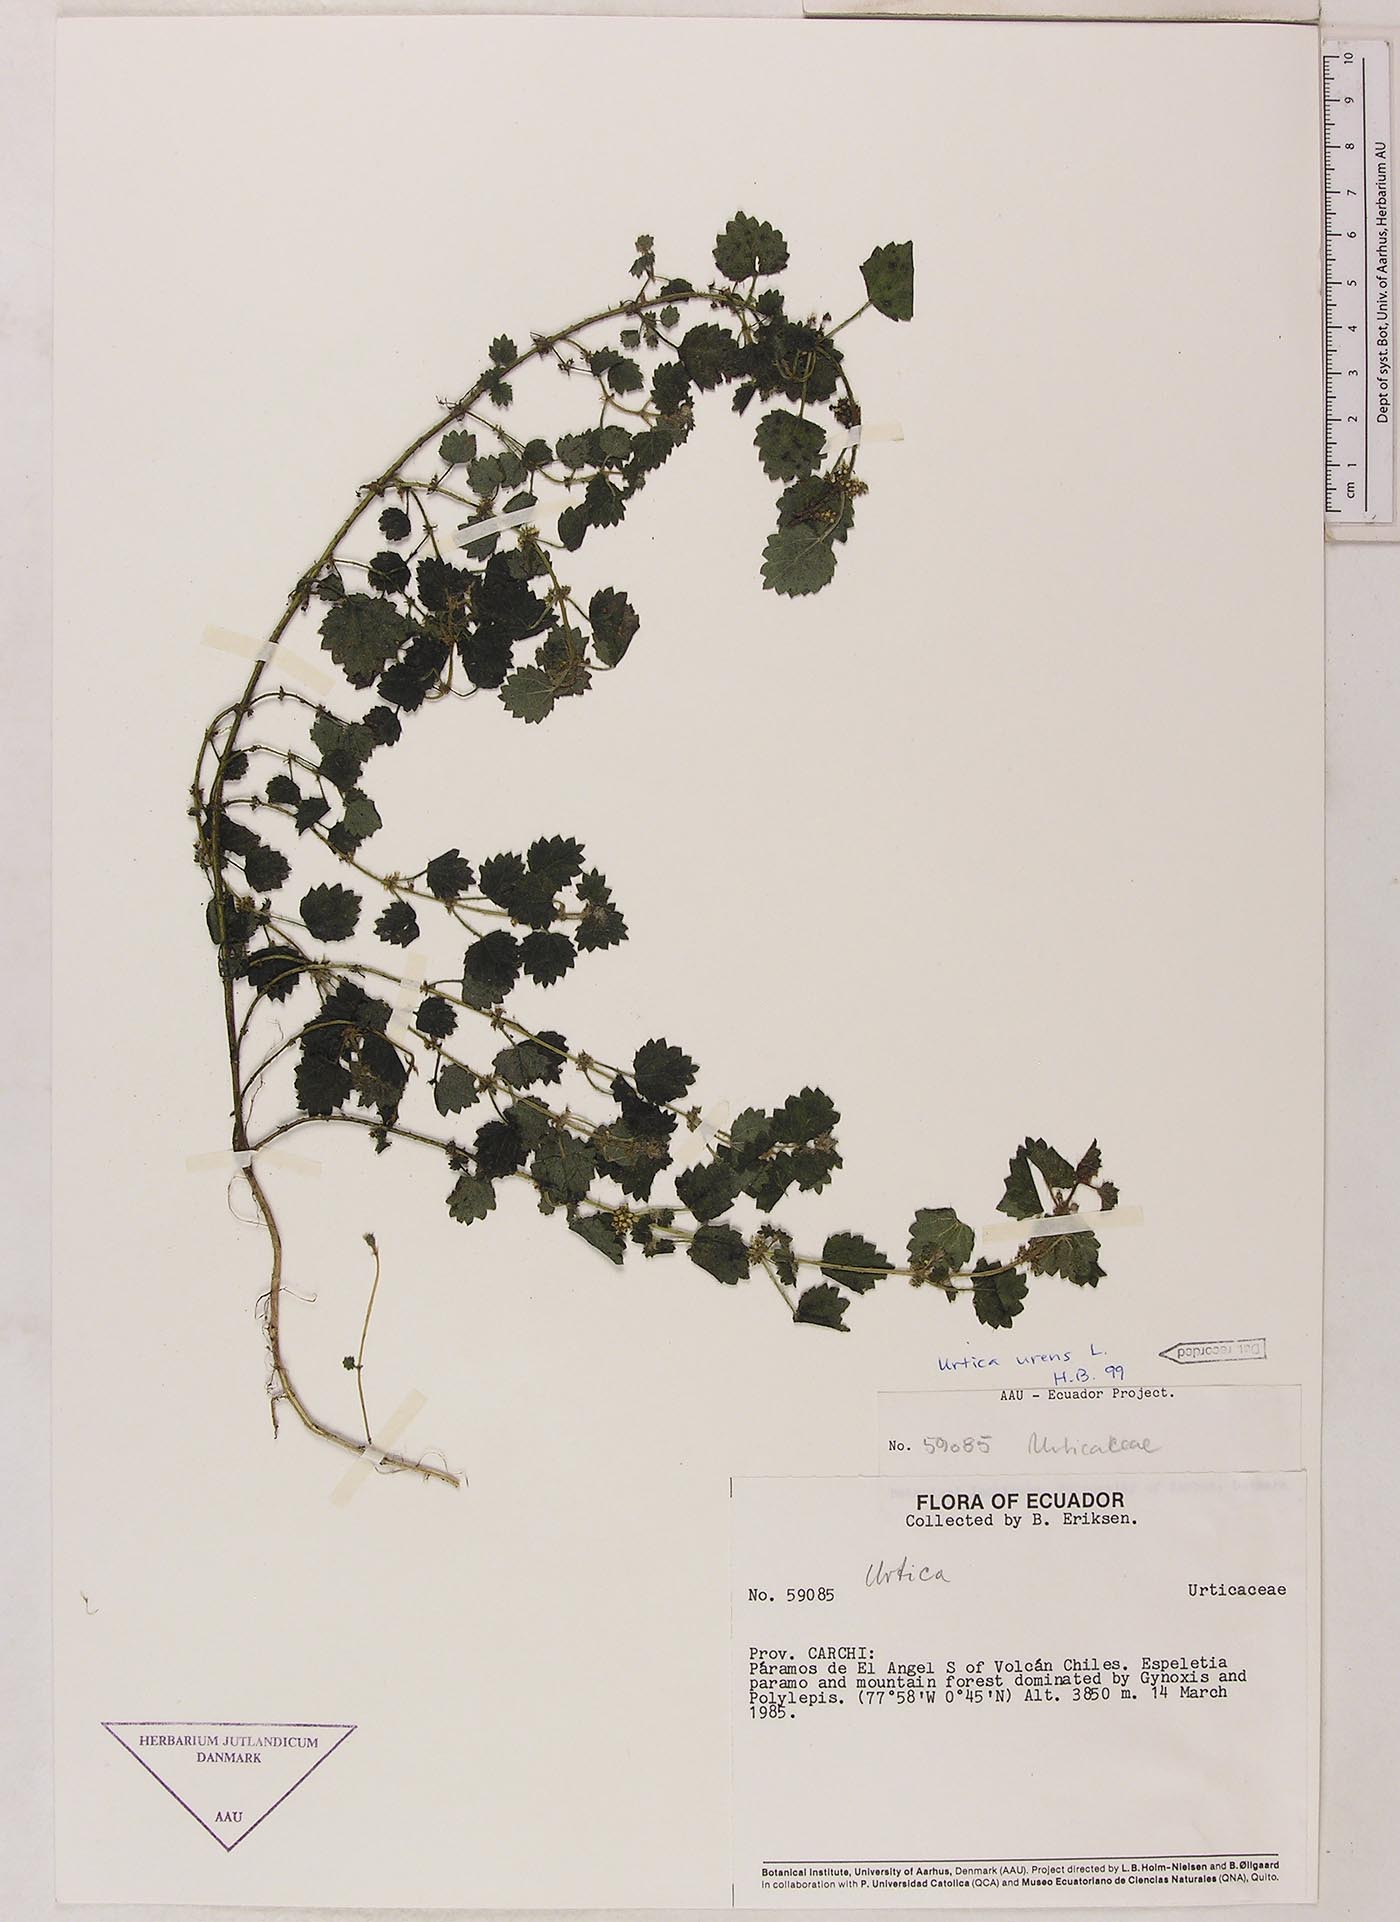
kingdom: Plantae
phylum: Tracheophyta
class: Magnoliopsida
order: Rosales
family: Urticaceae
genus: Urtica
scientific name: Urtica echinata
